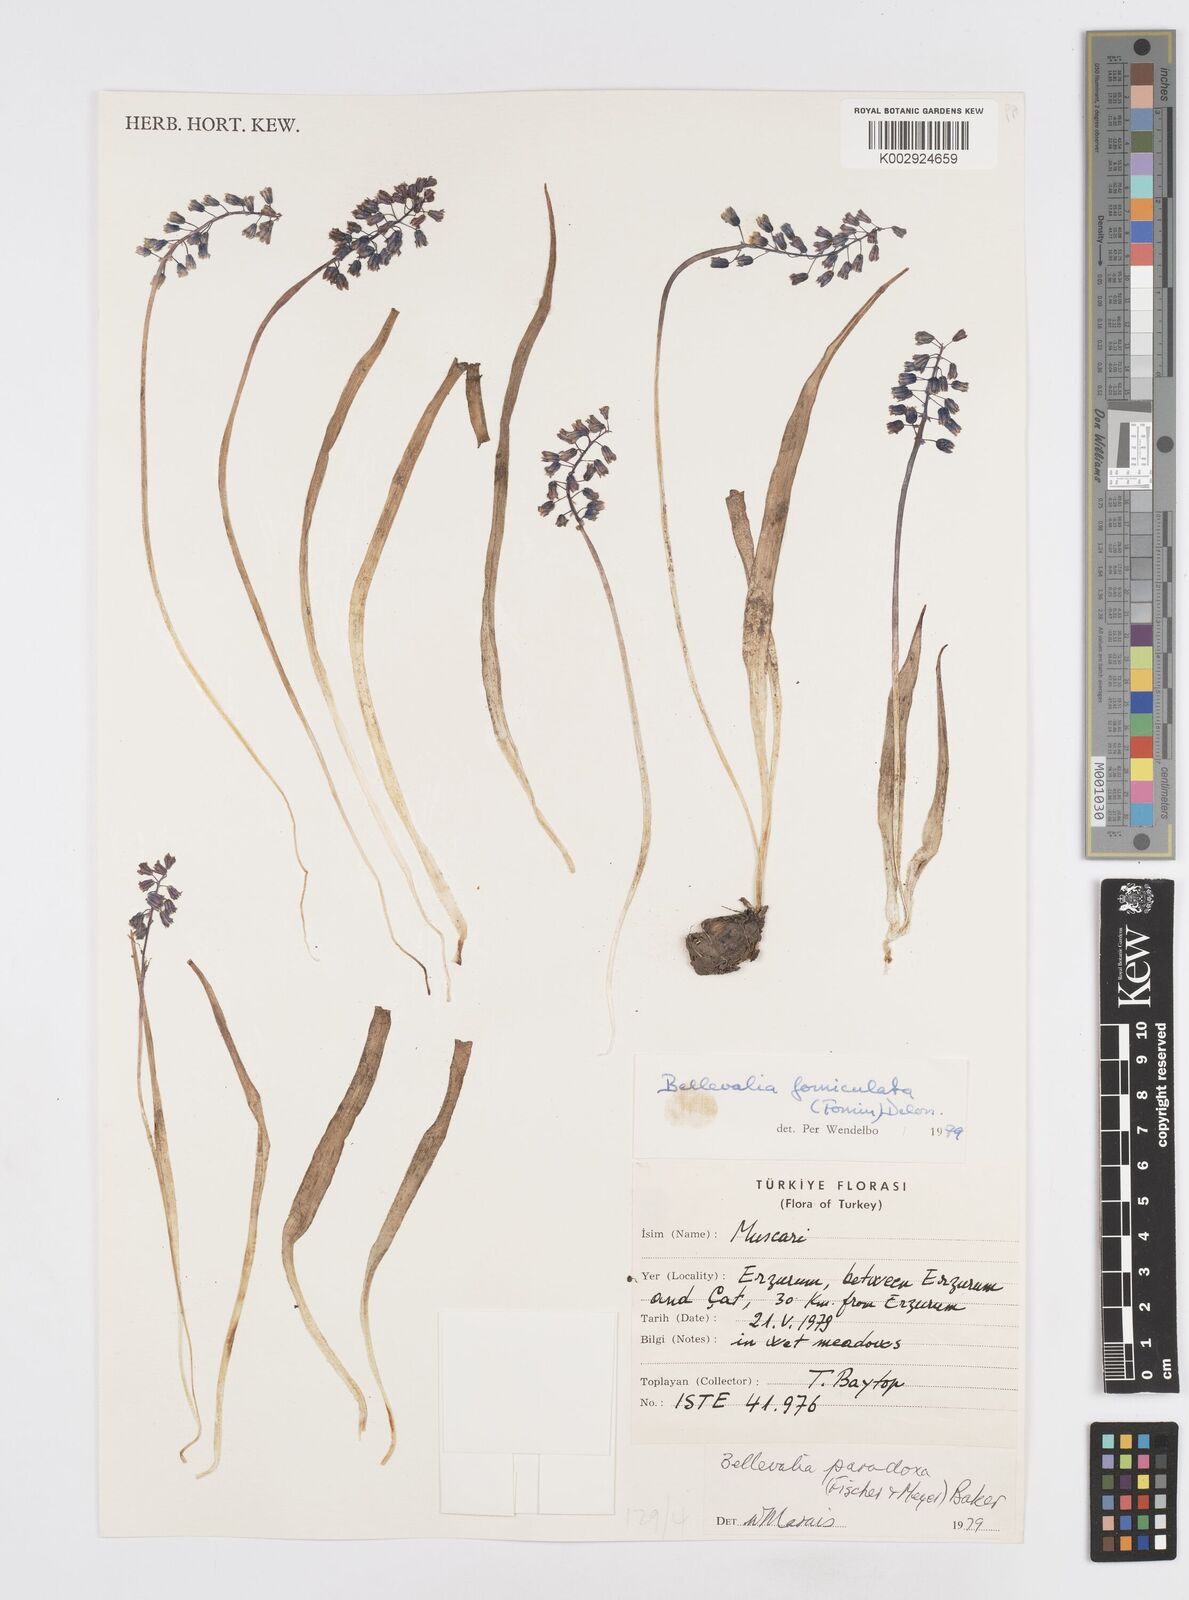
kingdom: Plantae
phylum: Tracheophyta
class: Liliopsida
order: Asparagales
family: Asparagaceae
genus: Muscari
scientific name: Muscari forniculatum
